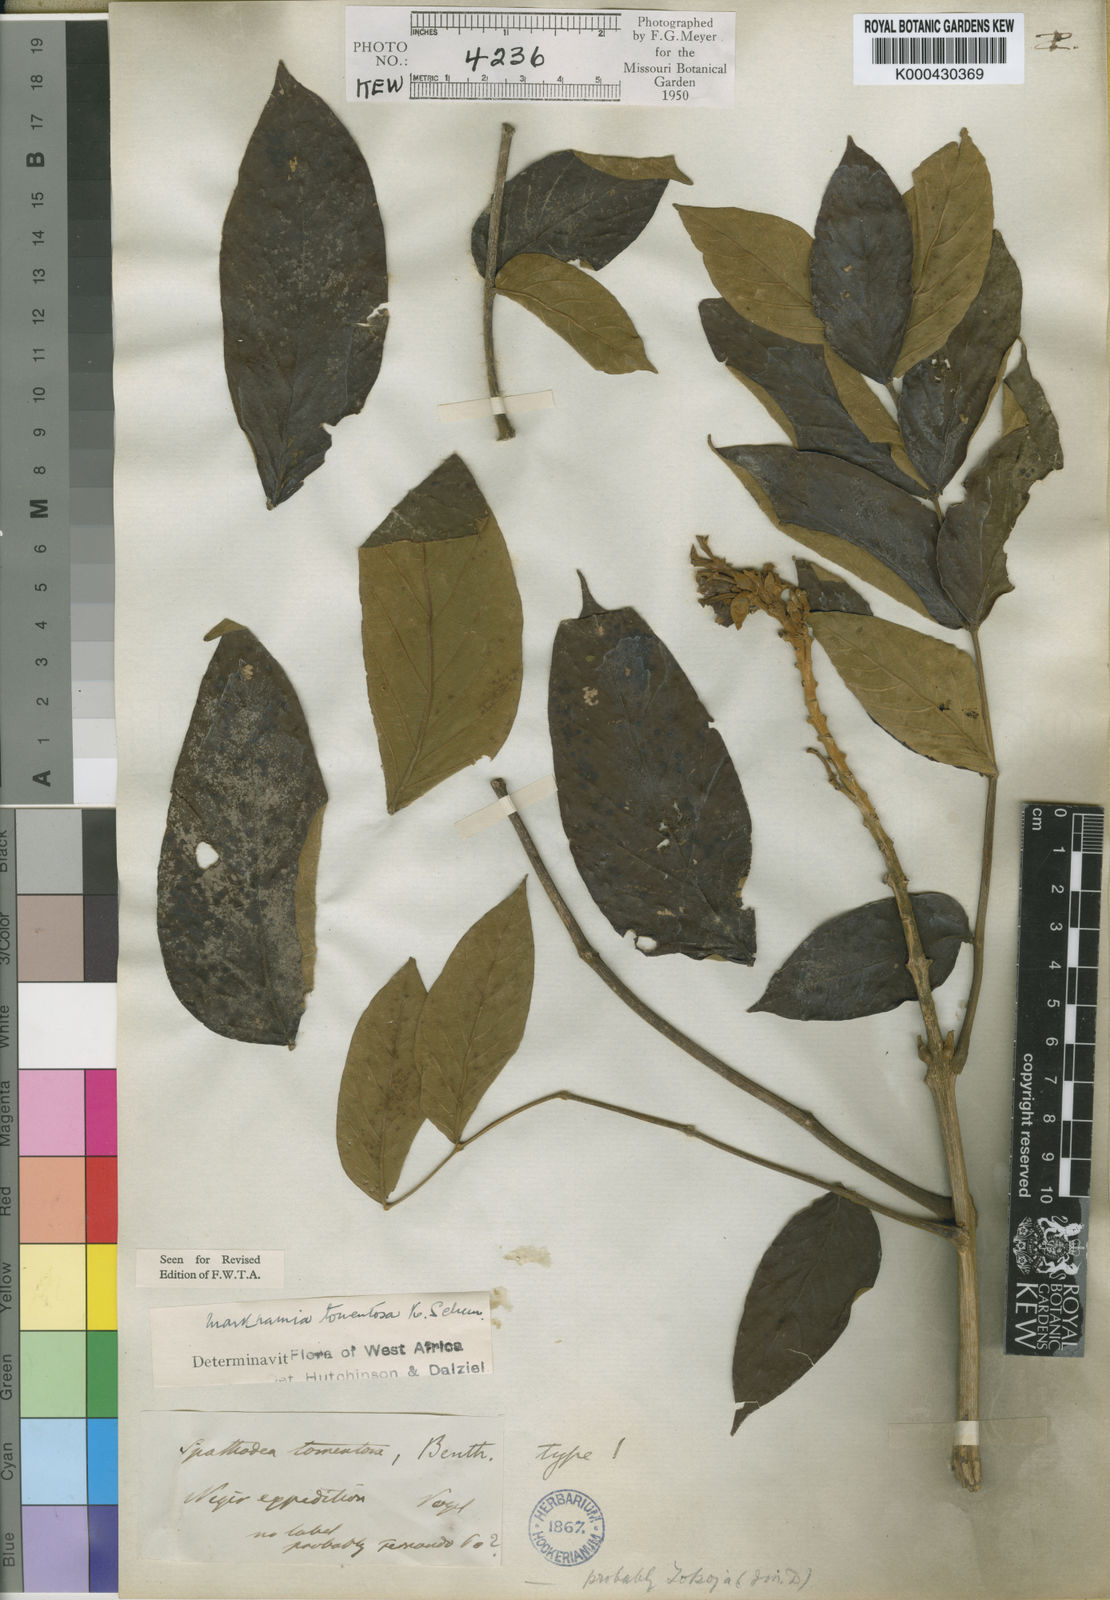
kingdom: Plantae
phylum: Tracheophyta
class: Magnoliopsida
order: Lamiales
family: Bignoniaceae
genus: Markhamia
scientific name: Markhamia tomentosa
